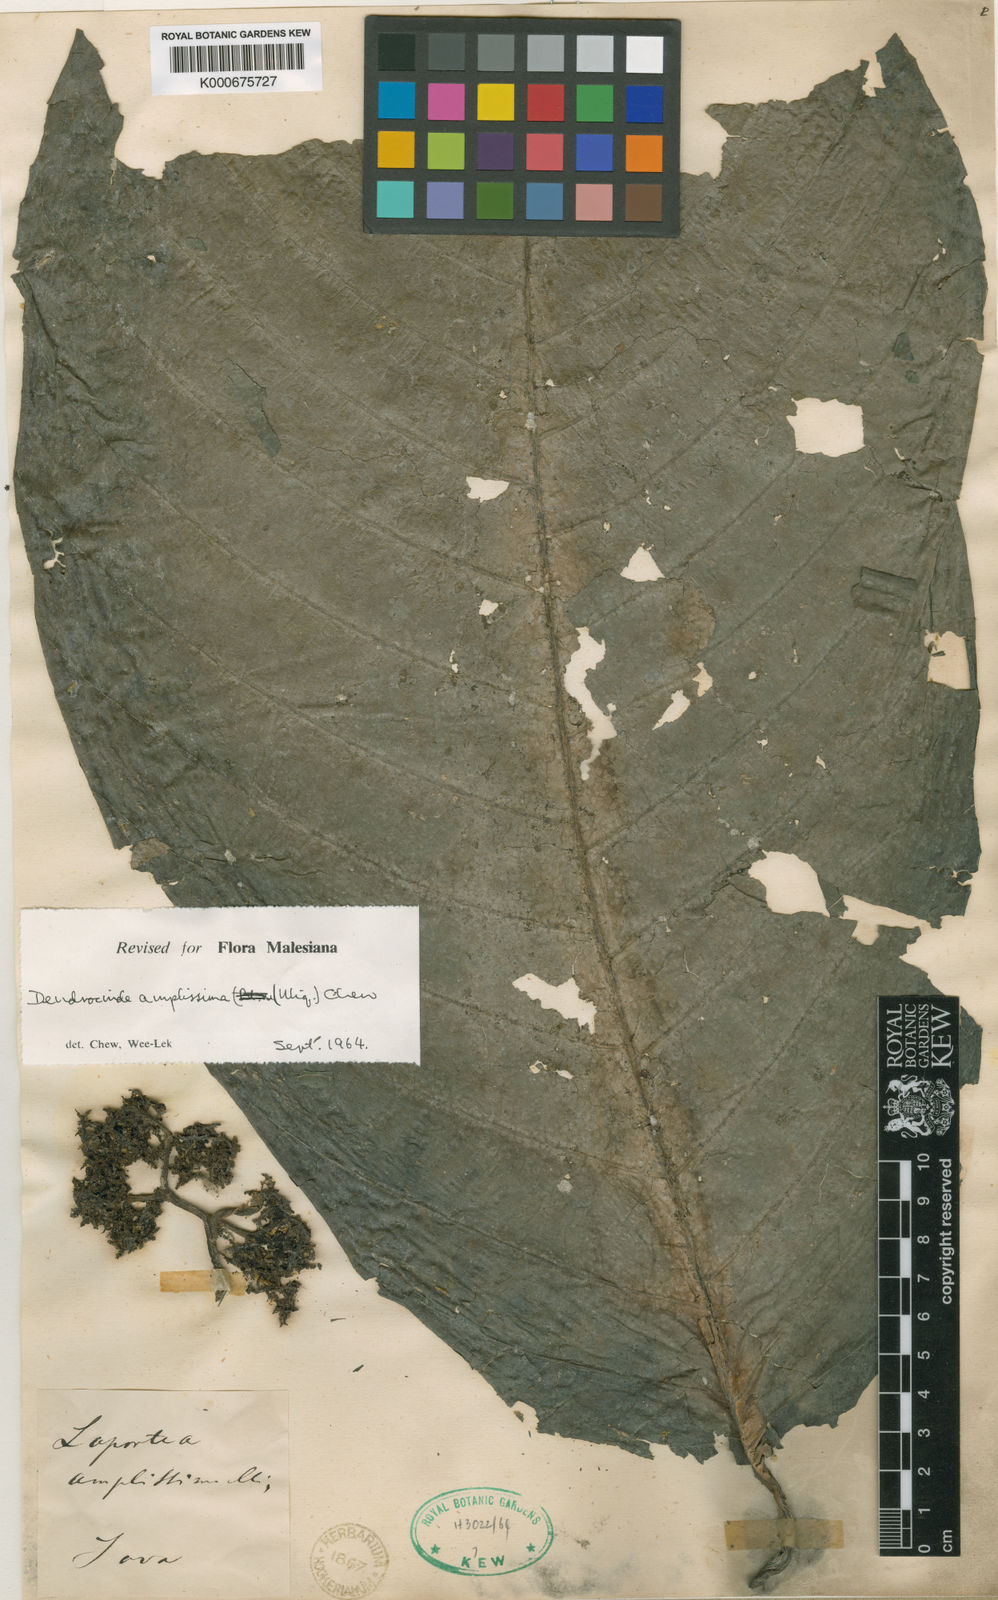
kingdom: Plantae
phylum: Tracheophyta
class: Magnoliopsida
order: Rosales
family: Urticaceae
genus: Dendrocnide
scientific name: Dendrocnide amplissima
